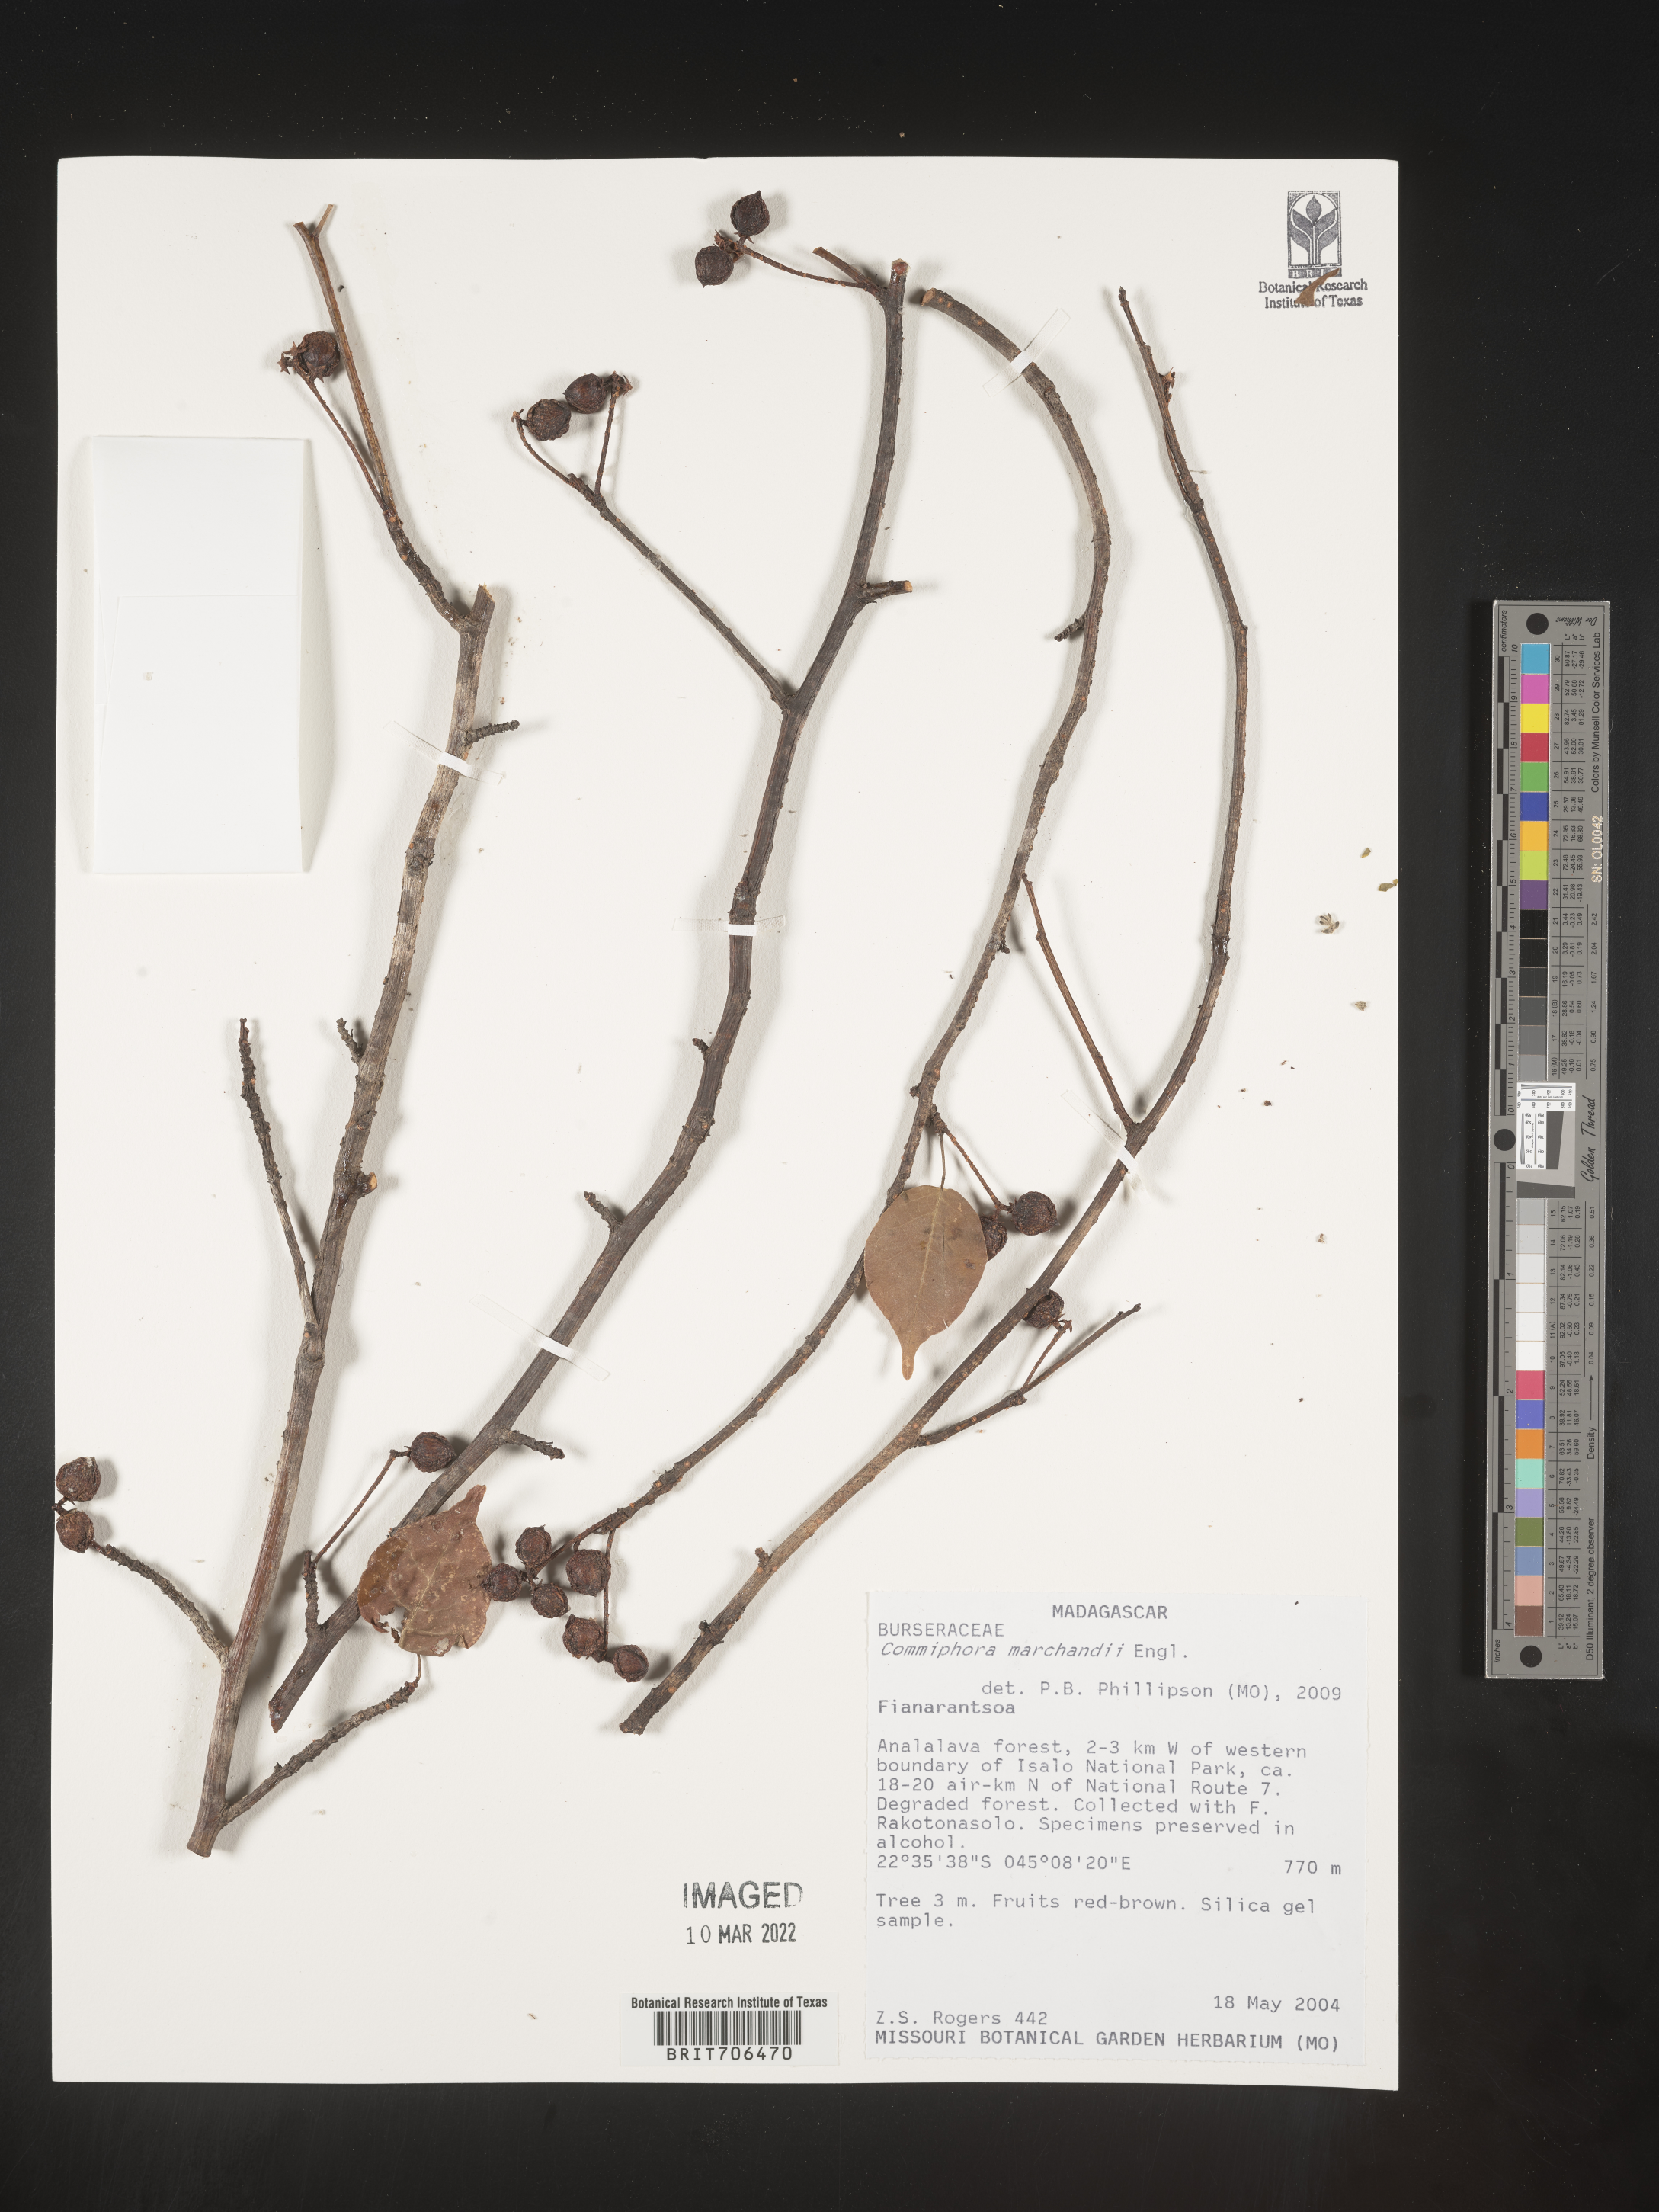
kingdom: Plantae
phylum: Tracheophyta
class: Magnoliopsida
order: Sapindales
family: Burseraceae
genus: Commiphora
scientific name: Commiphora
